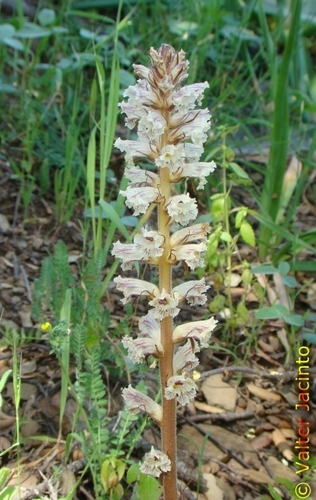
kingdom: Plantae
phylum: Tracheophyta
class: Magnoliopsida
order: Lamiales
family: Orobanchaceae
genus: Orobanche
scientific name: Orobanche crenata
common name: Bean broomrape
